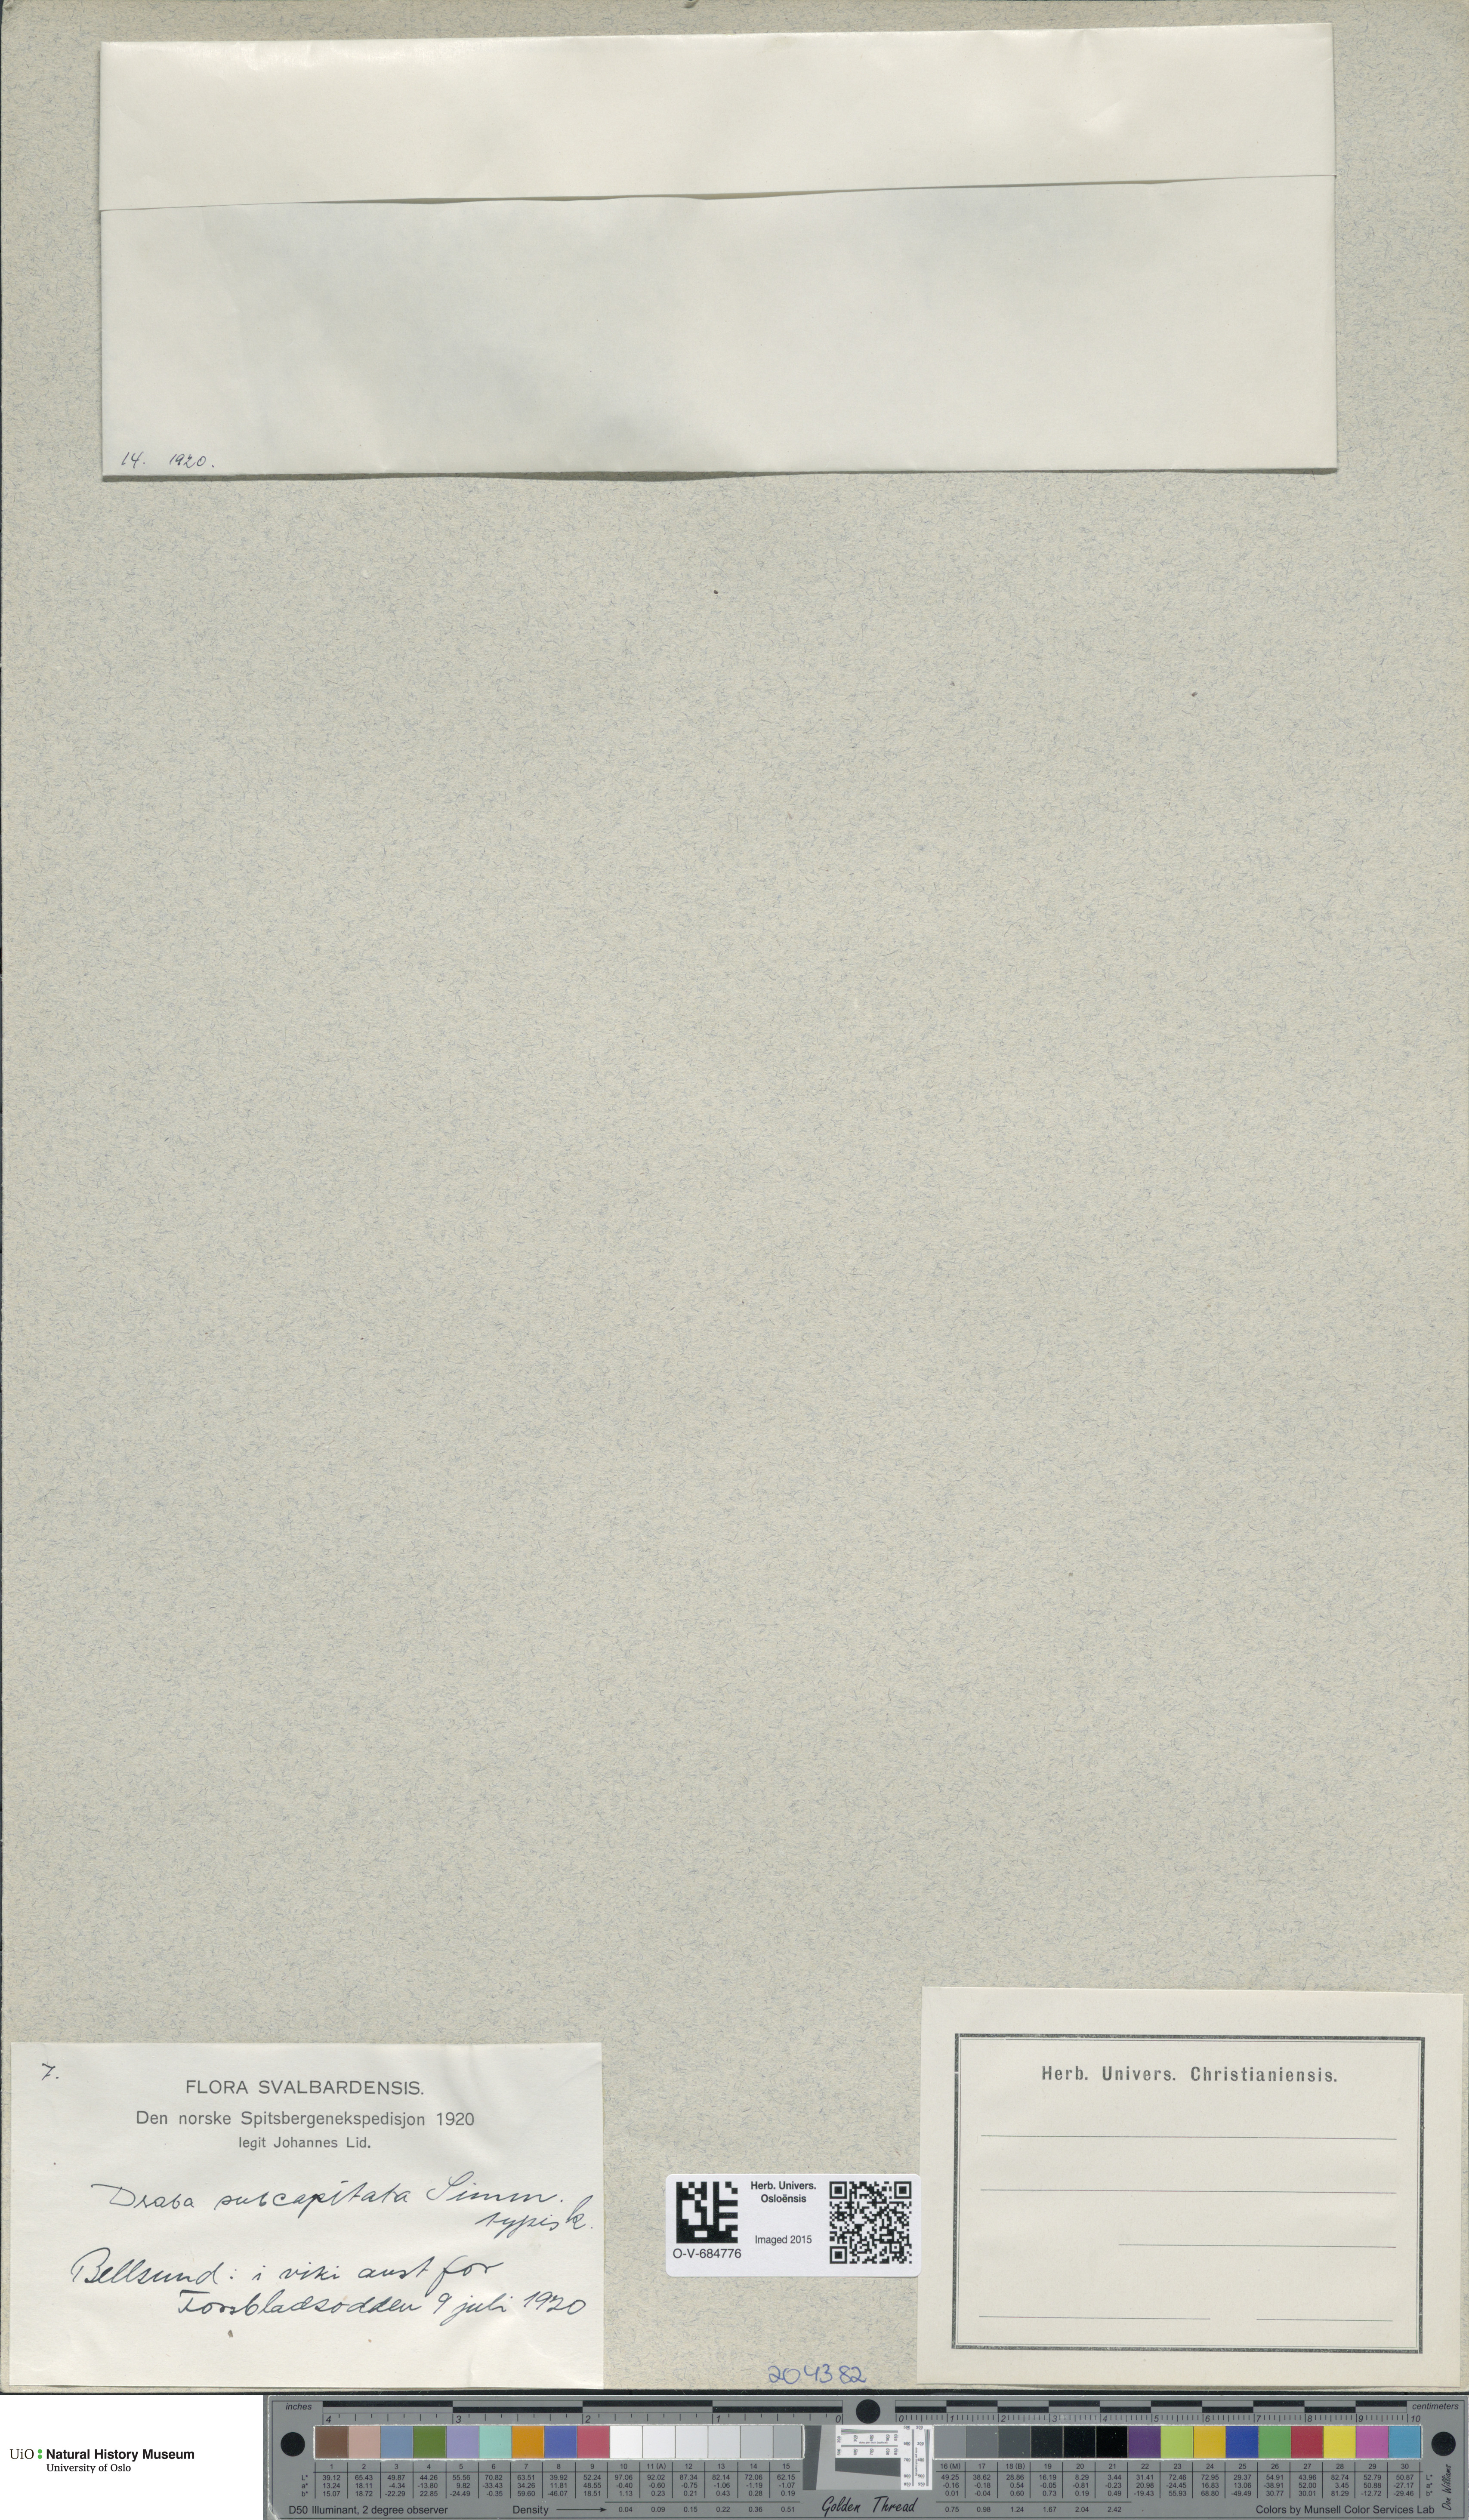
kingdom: Plantae
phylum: Tracheophyta
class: Magnoliopsida
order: Brassicales
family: Brassicaceae
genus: Draba
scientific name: Draba subcapitata
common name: Ellesmere island draba
